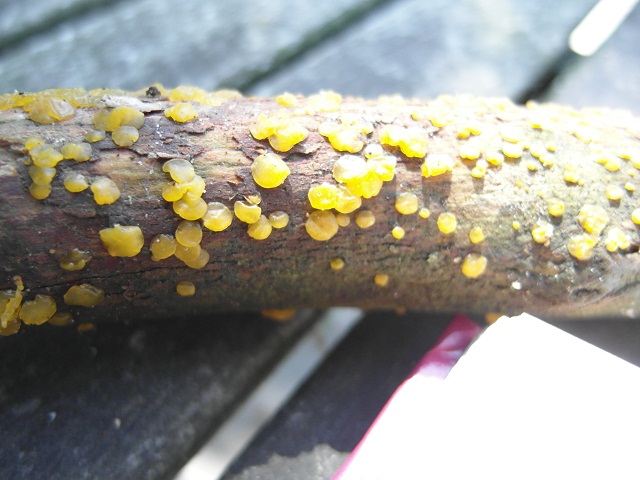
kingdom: Fungi
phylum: Basidiomycota
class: Dacrymycetes
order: Dacrymycetales
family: Dacrymycetaceae
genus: Dacrymyces
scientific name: Dacrymyces lacrymalis
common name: rynket tåresvamp
